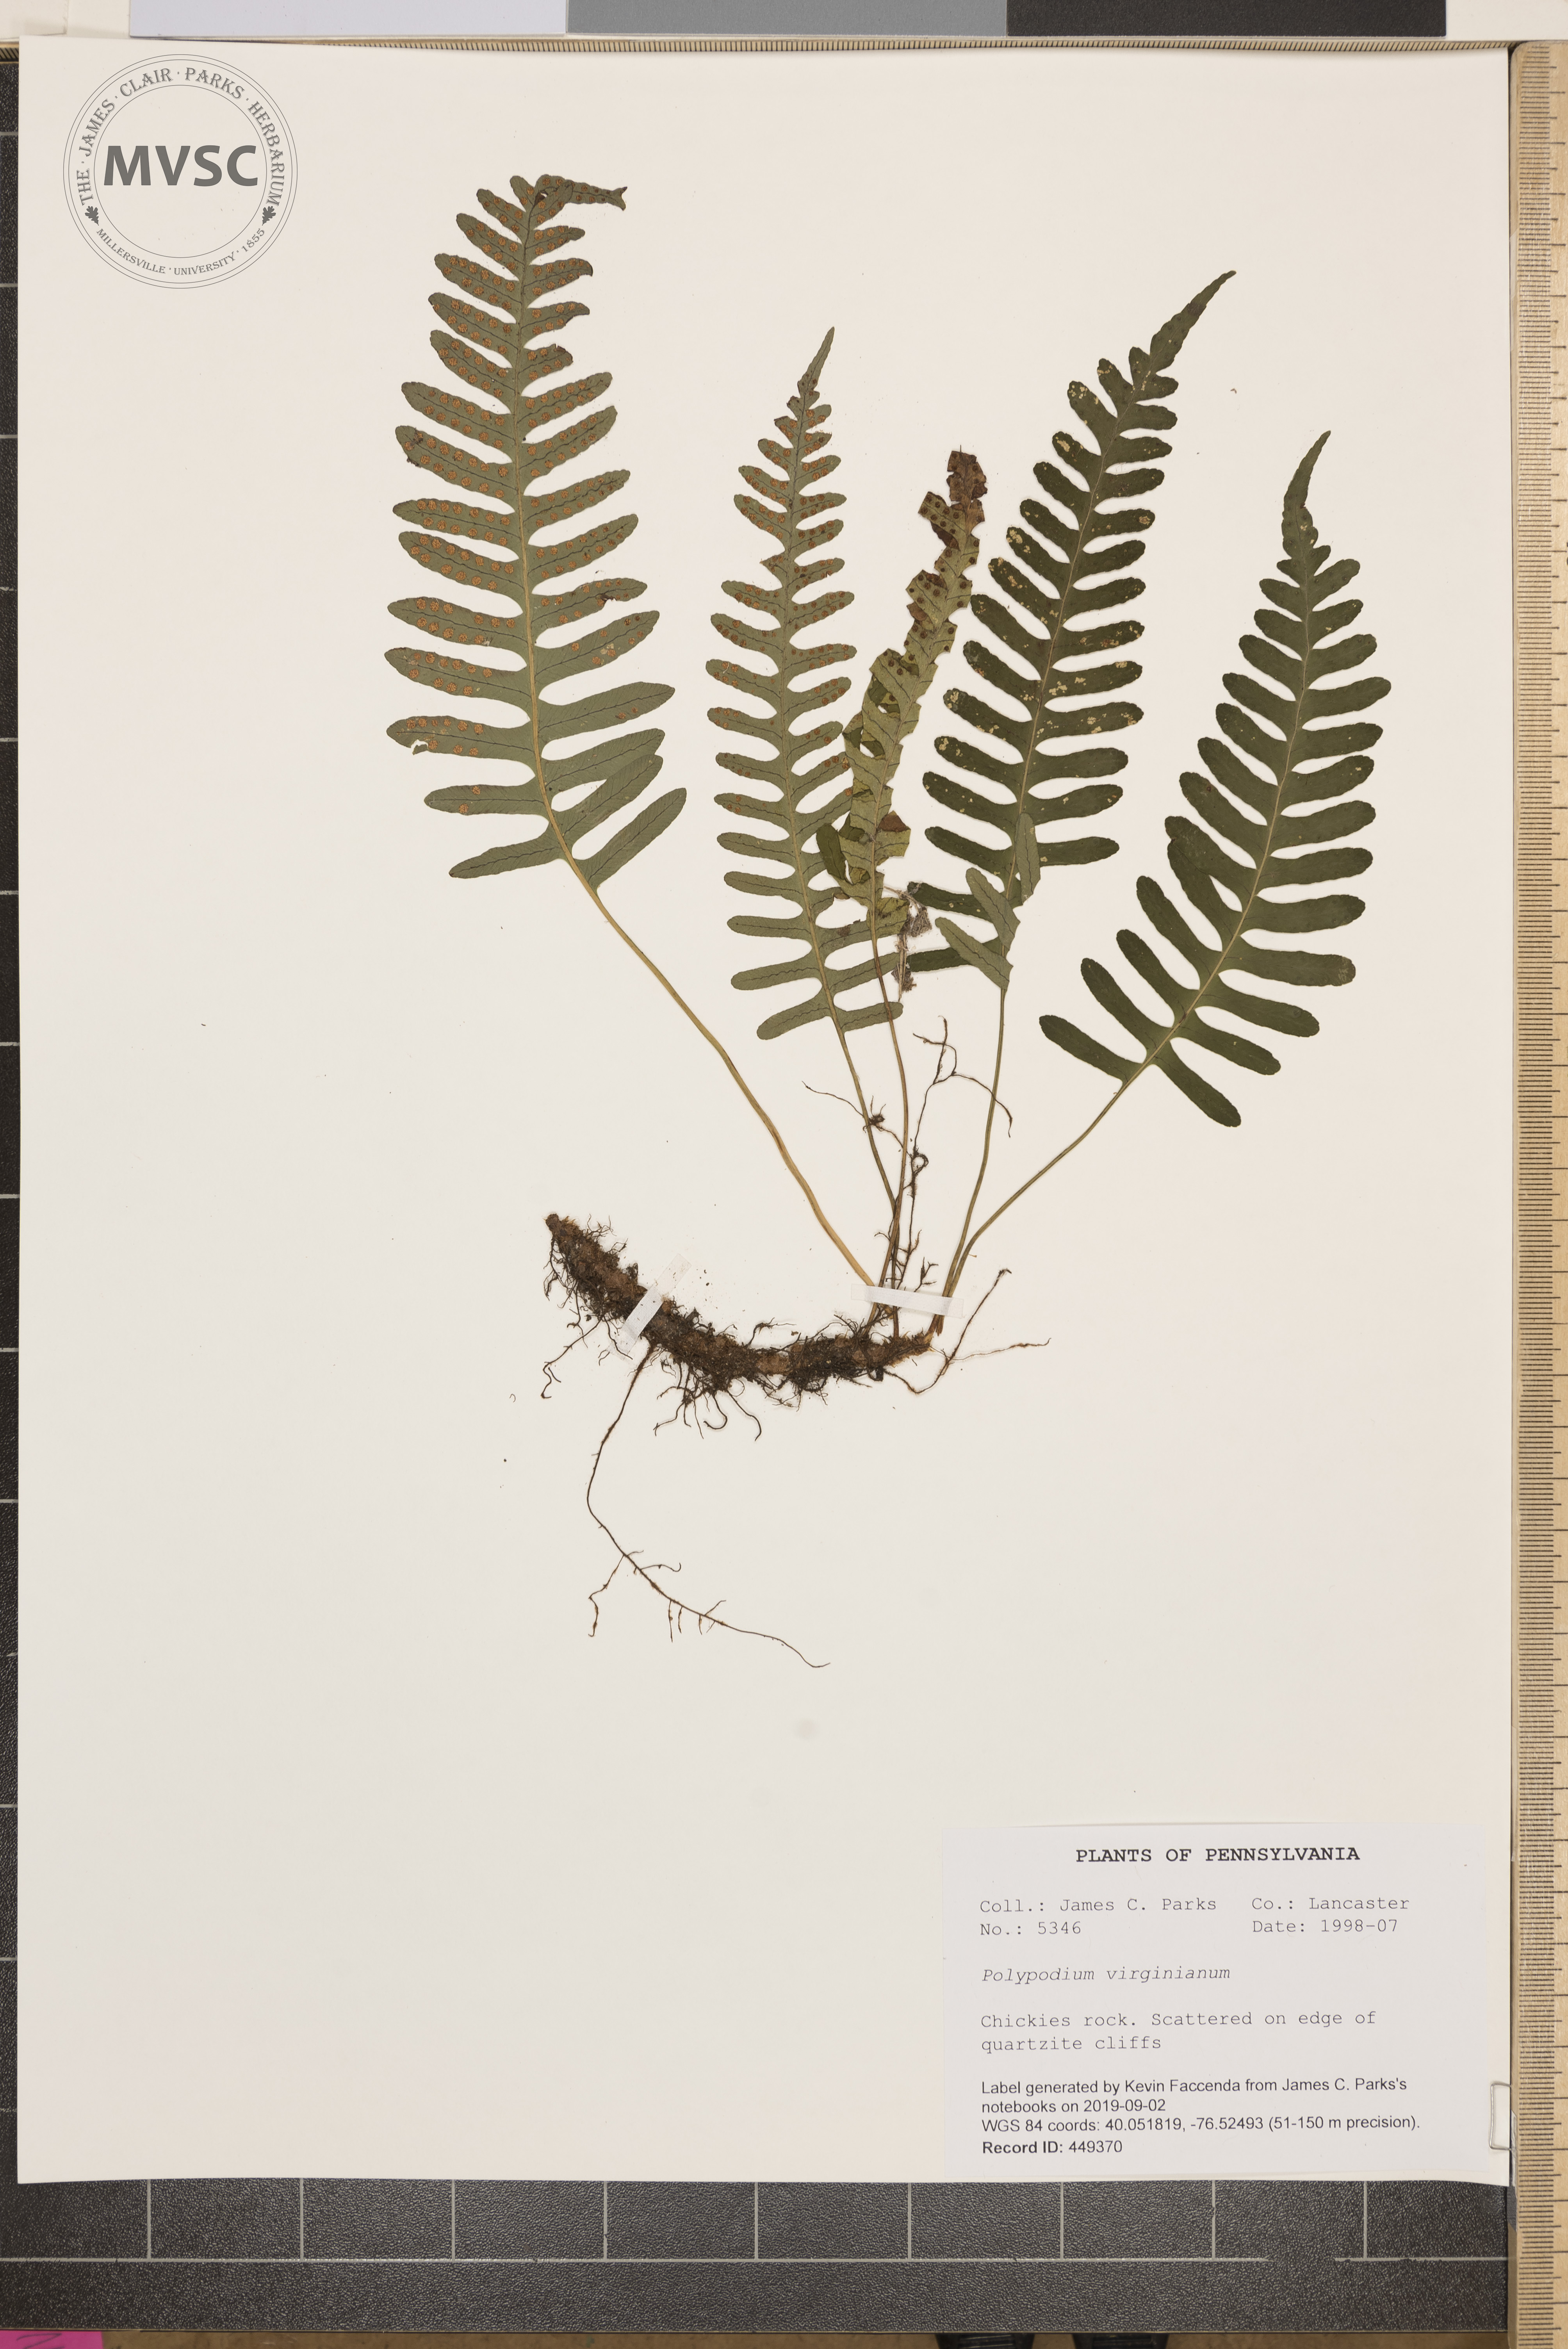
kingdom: Plantae
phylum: Tracheophyta
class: Polypodiopsida
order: Polypodiales
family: Polypodiaceae
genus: Polypodium
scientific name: Polypodium virginianum
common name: American wall fern
